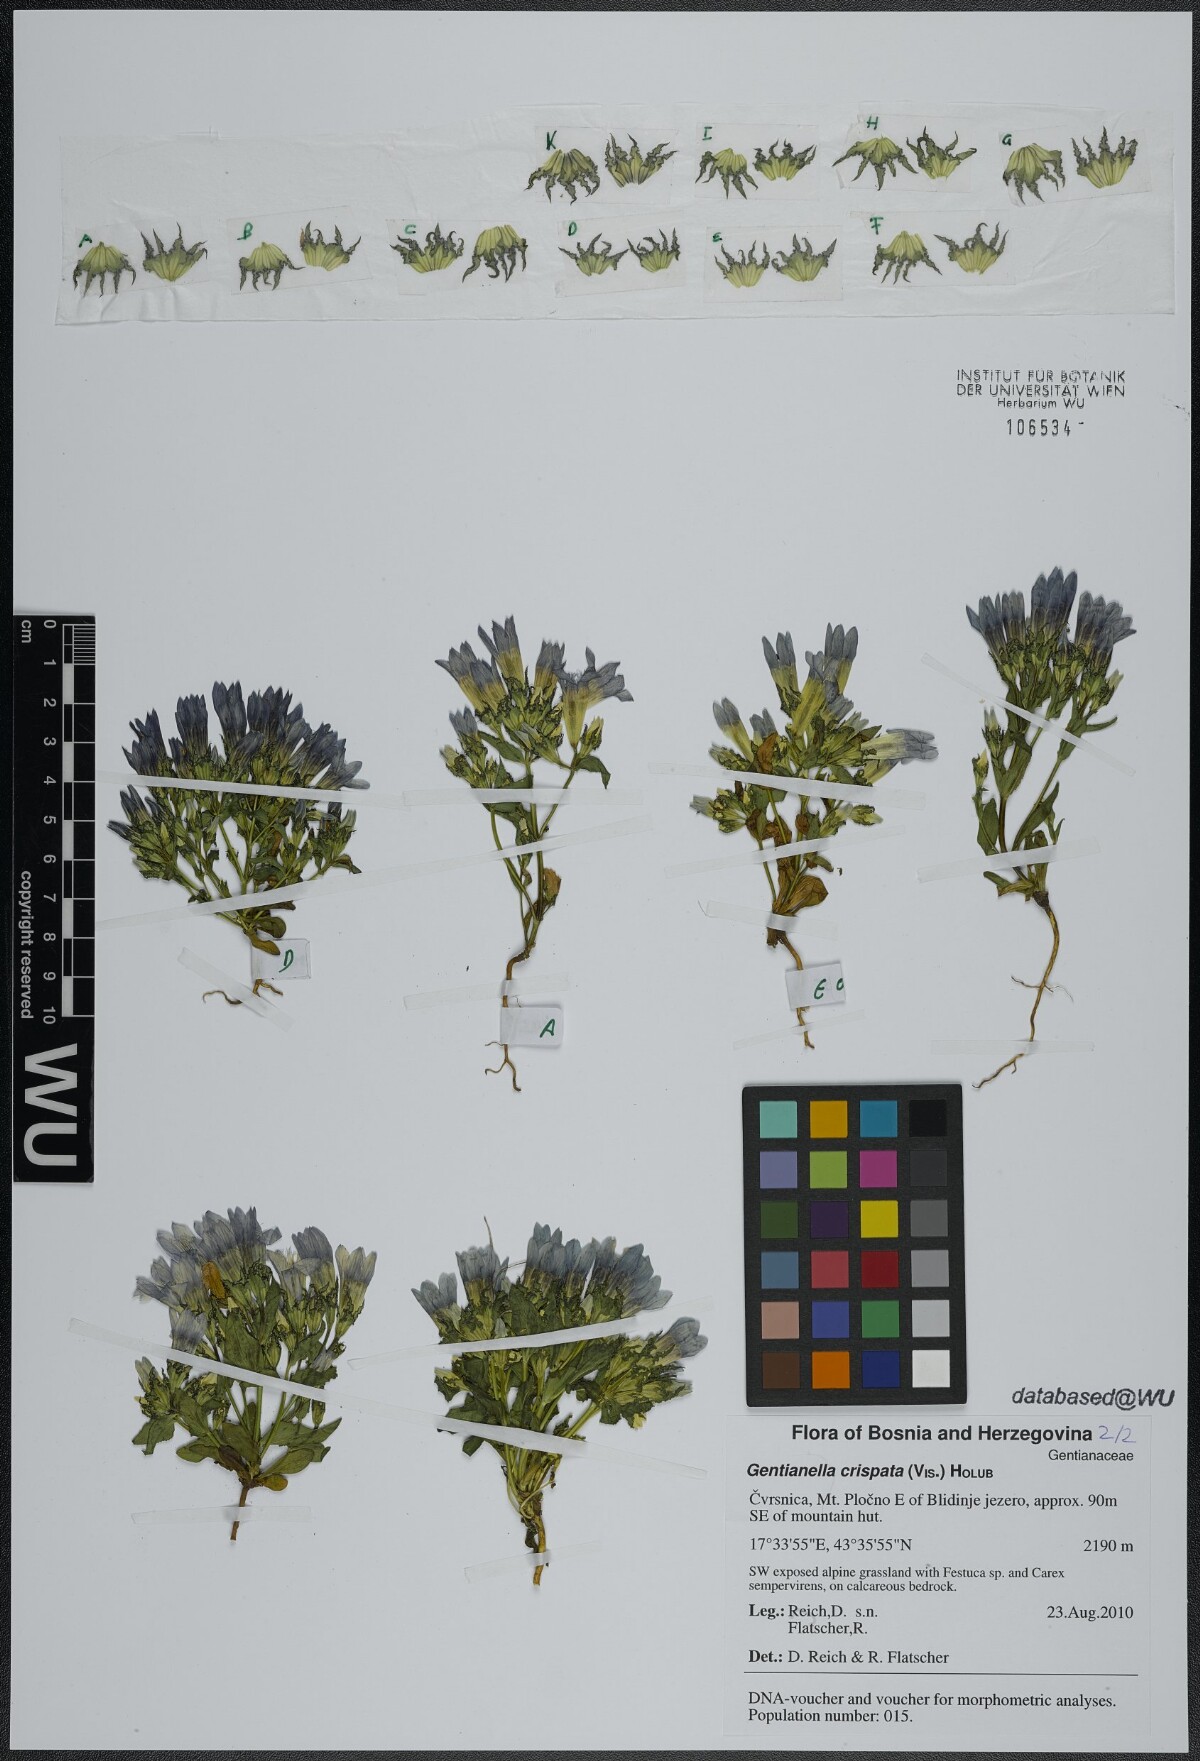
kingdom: Plantae
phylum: Tracheophyta
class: Magnoliopsida
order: Gentianales
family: Gentianaceae
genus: Gentianella
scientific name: Gentianella crispata
